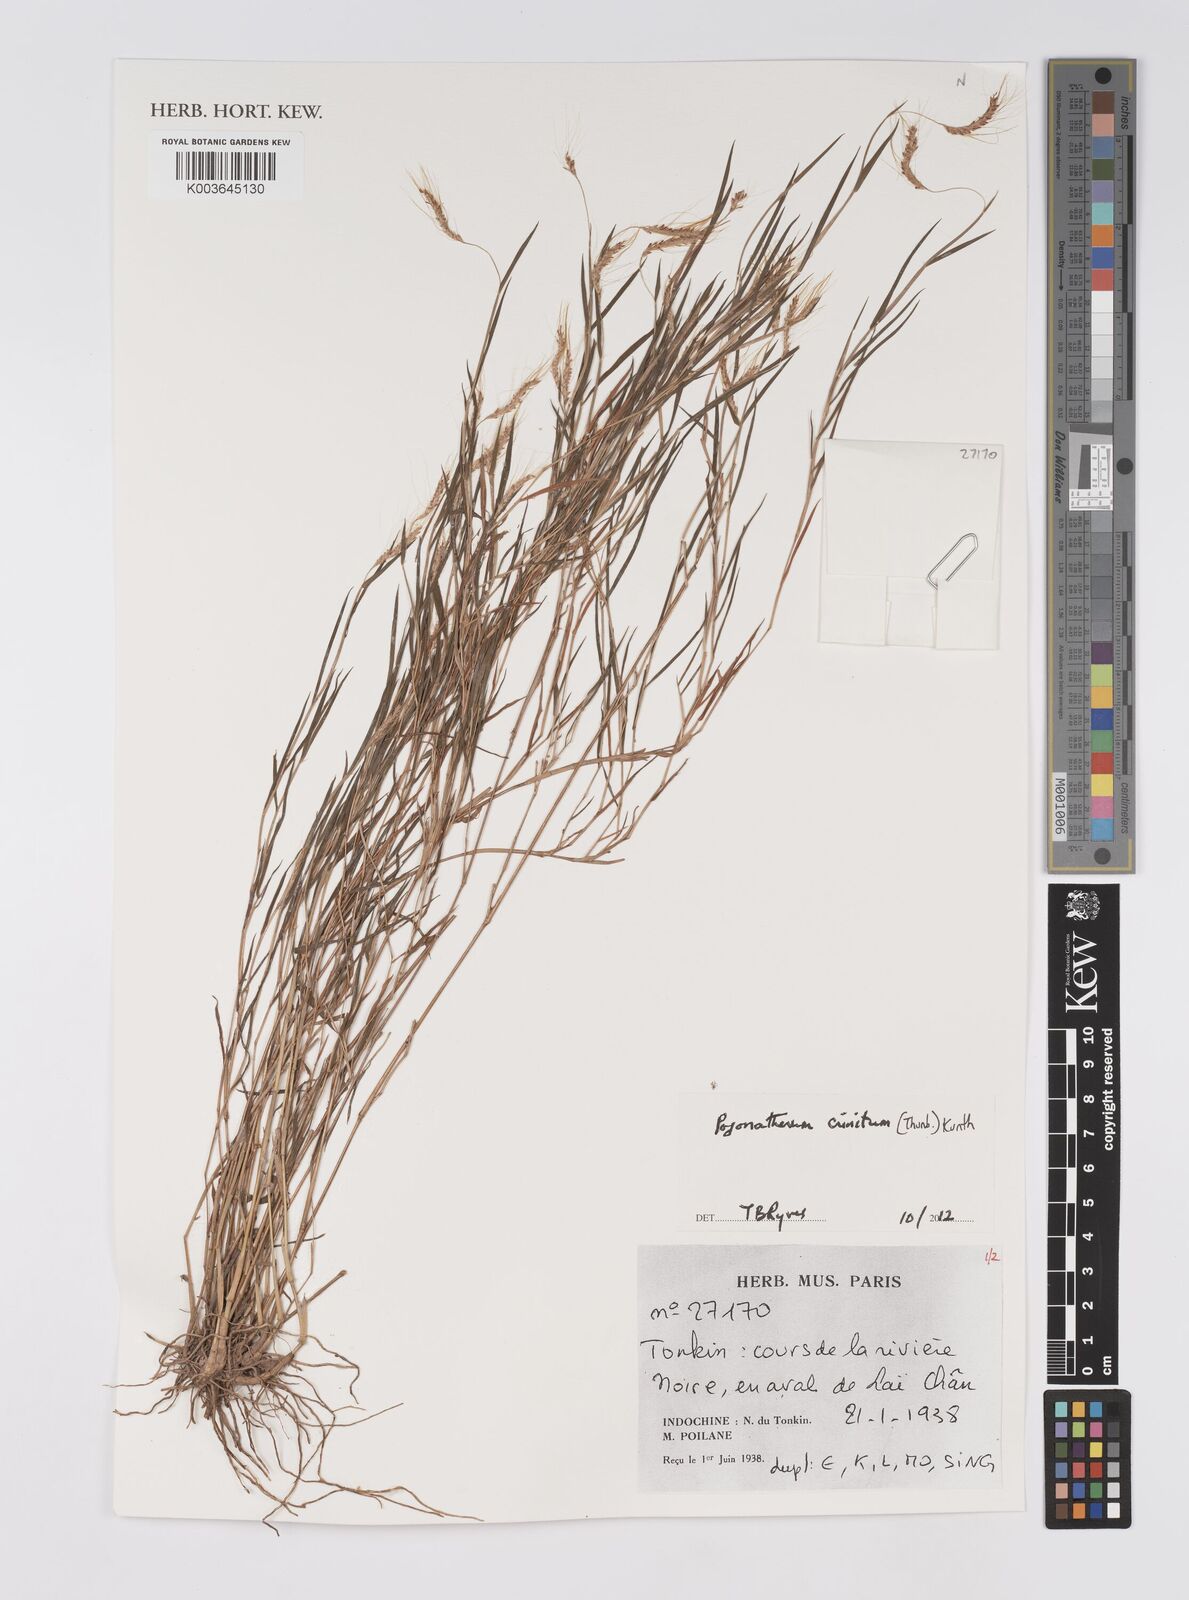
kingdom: Plantae
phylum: Tracheophyta
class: Liliopsida
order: Poales
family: Poaceae
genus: Pogonatherum
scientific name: Pogonatherum crinitum
